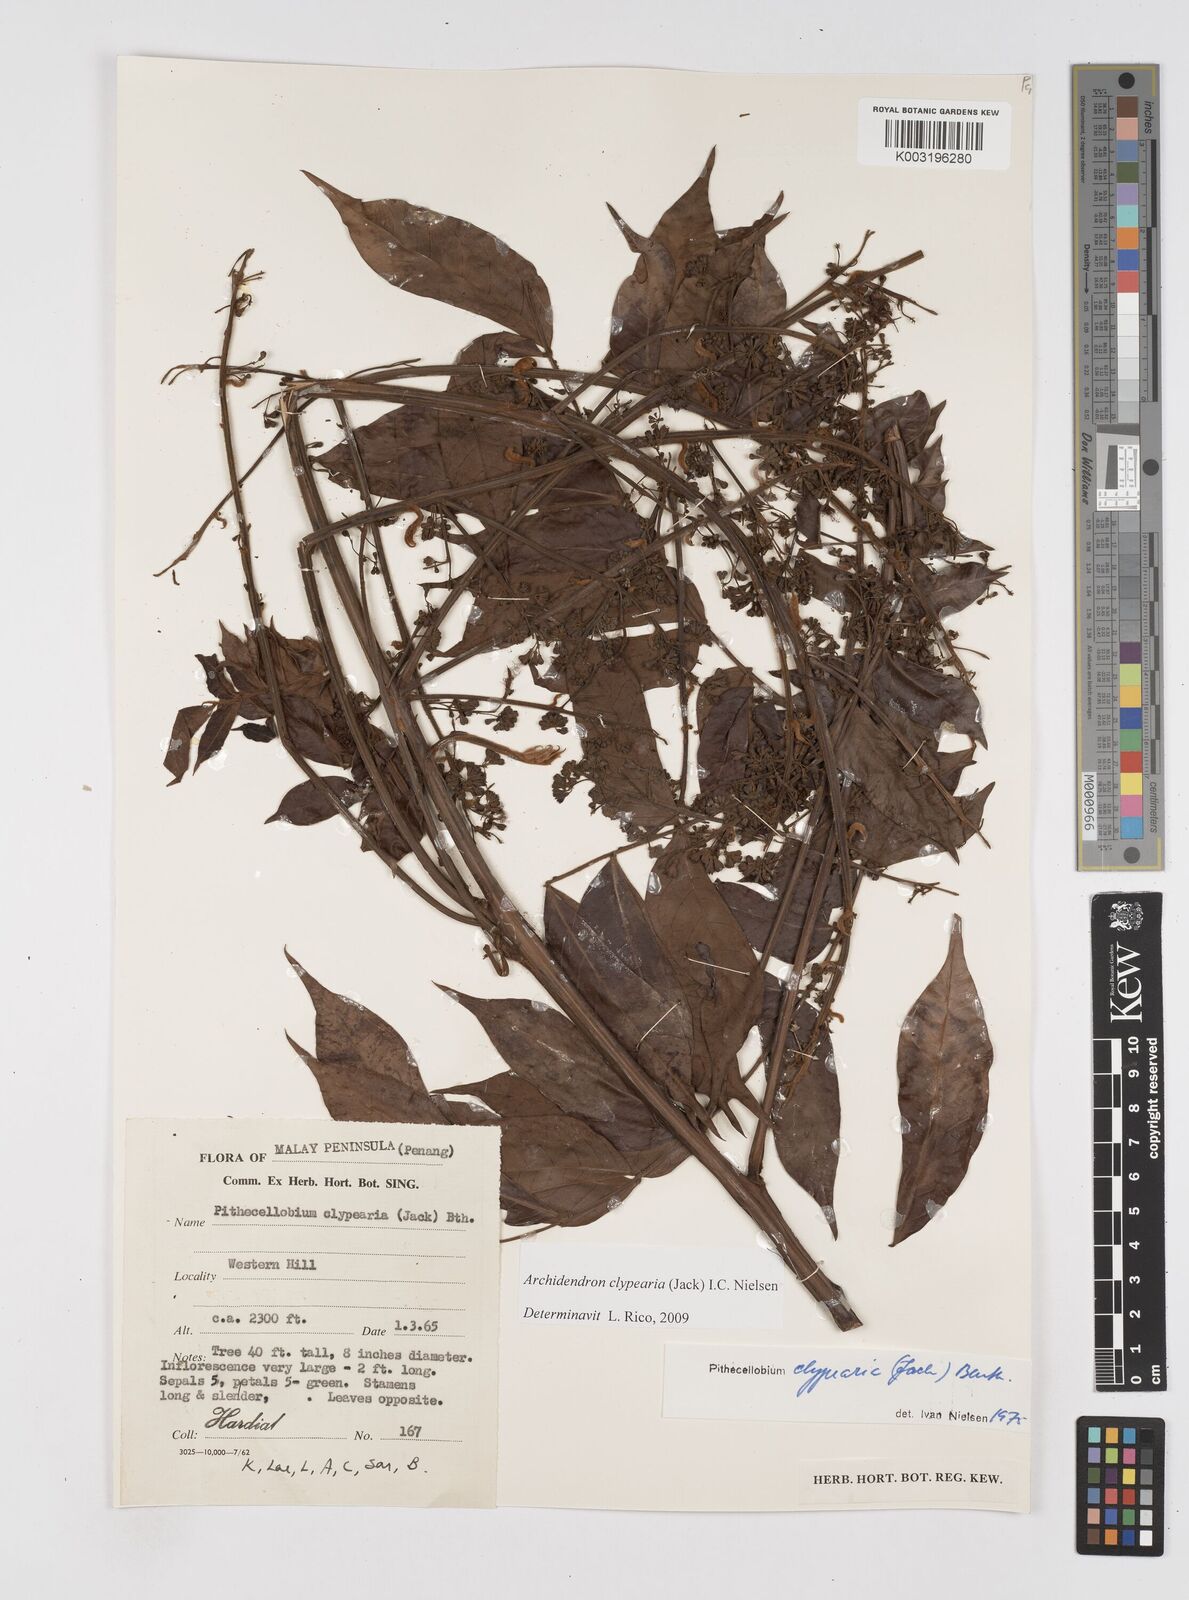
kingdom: Plantae
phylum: Tracheophyta
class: Magnoliopsida
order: Fabales
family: Fabaceae
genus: Archidendron
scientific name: Archidendron clypearia
